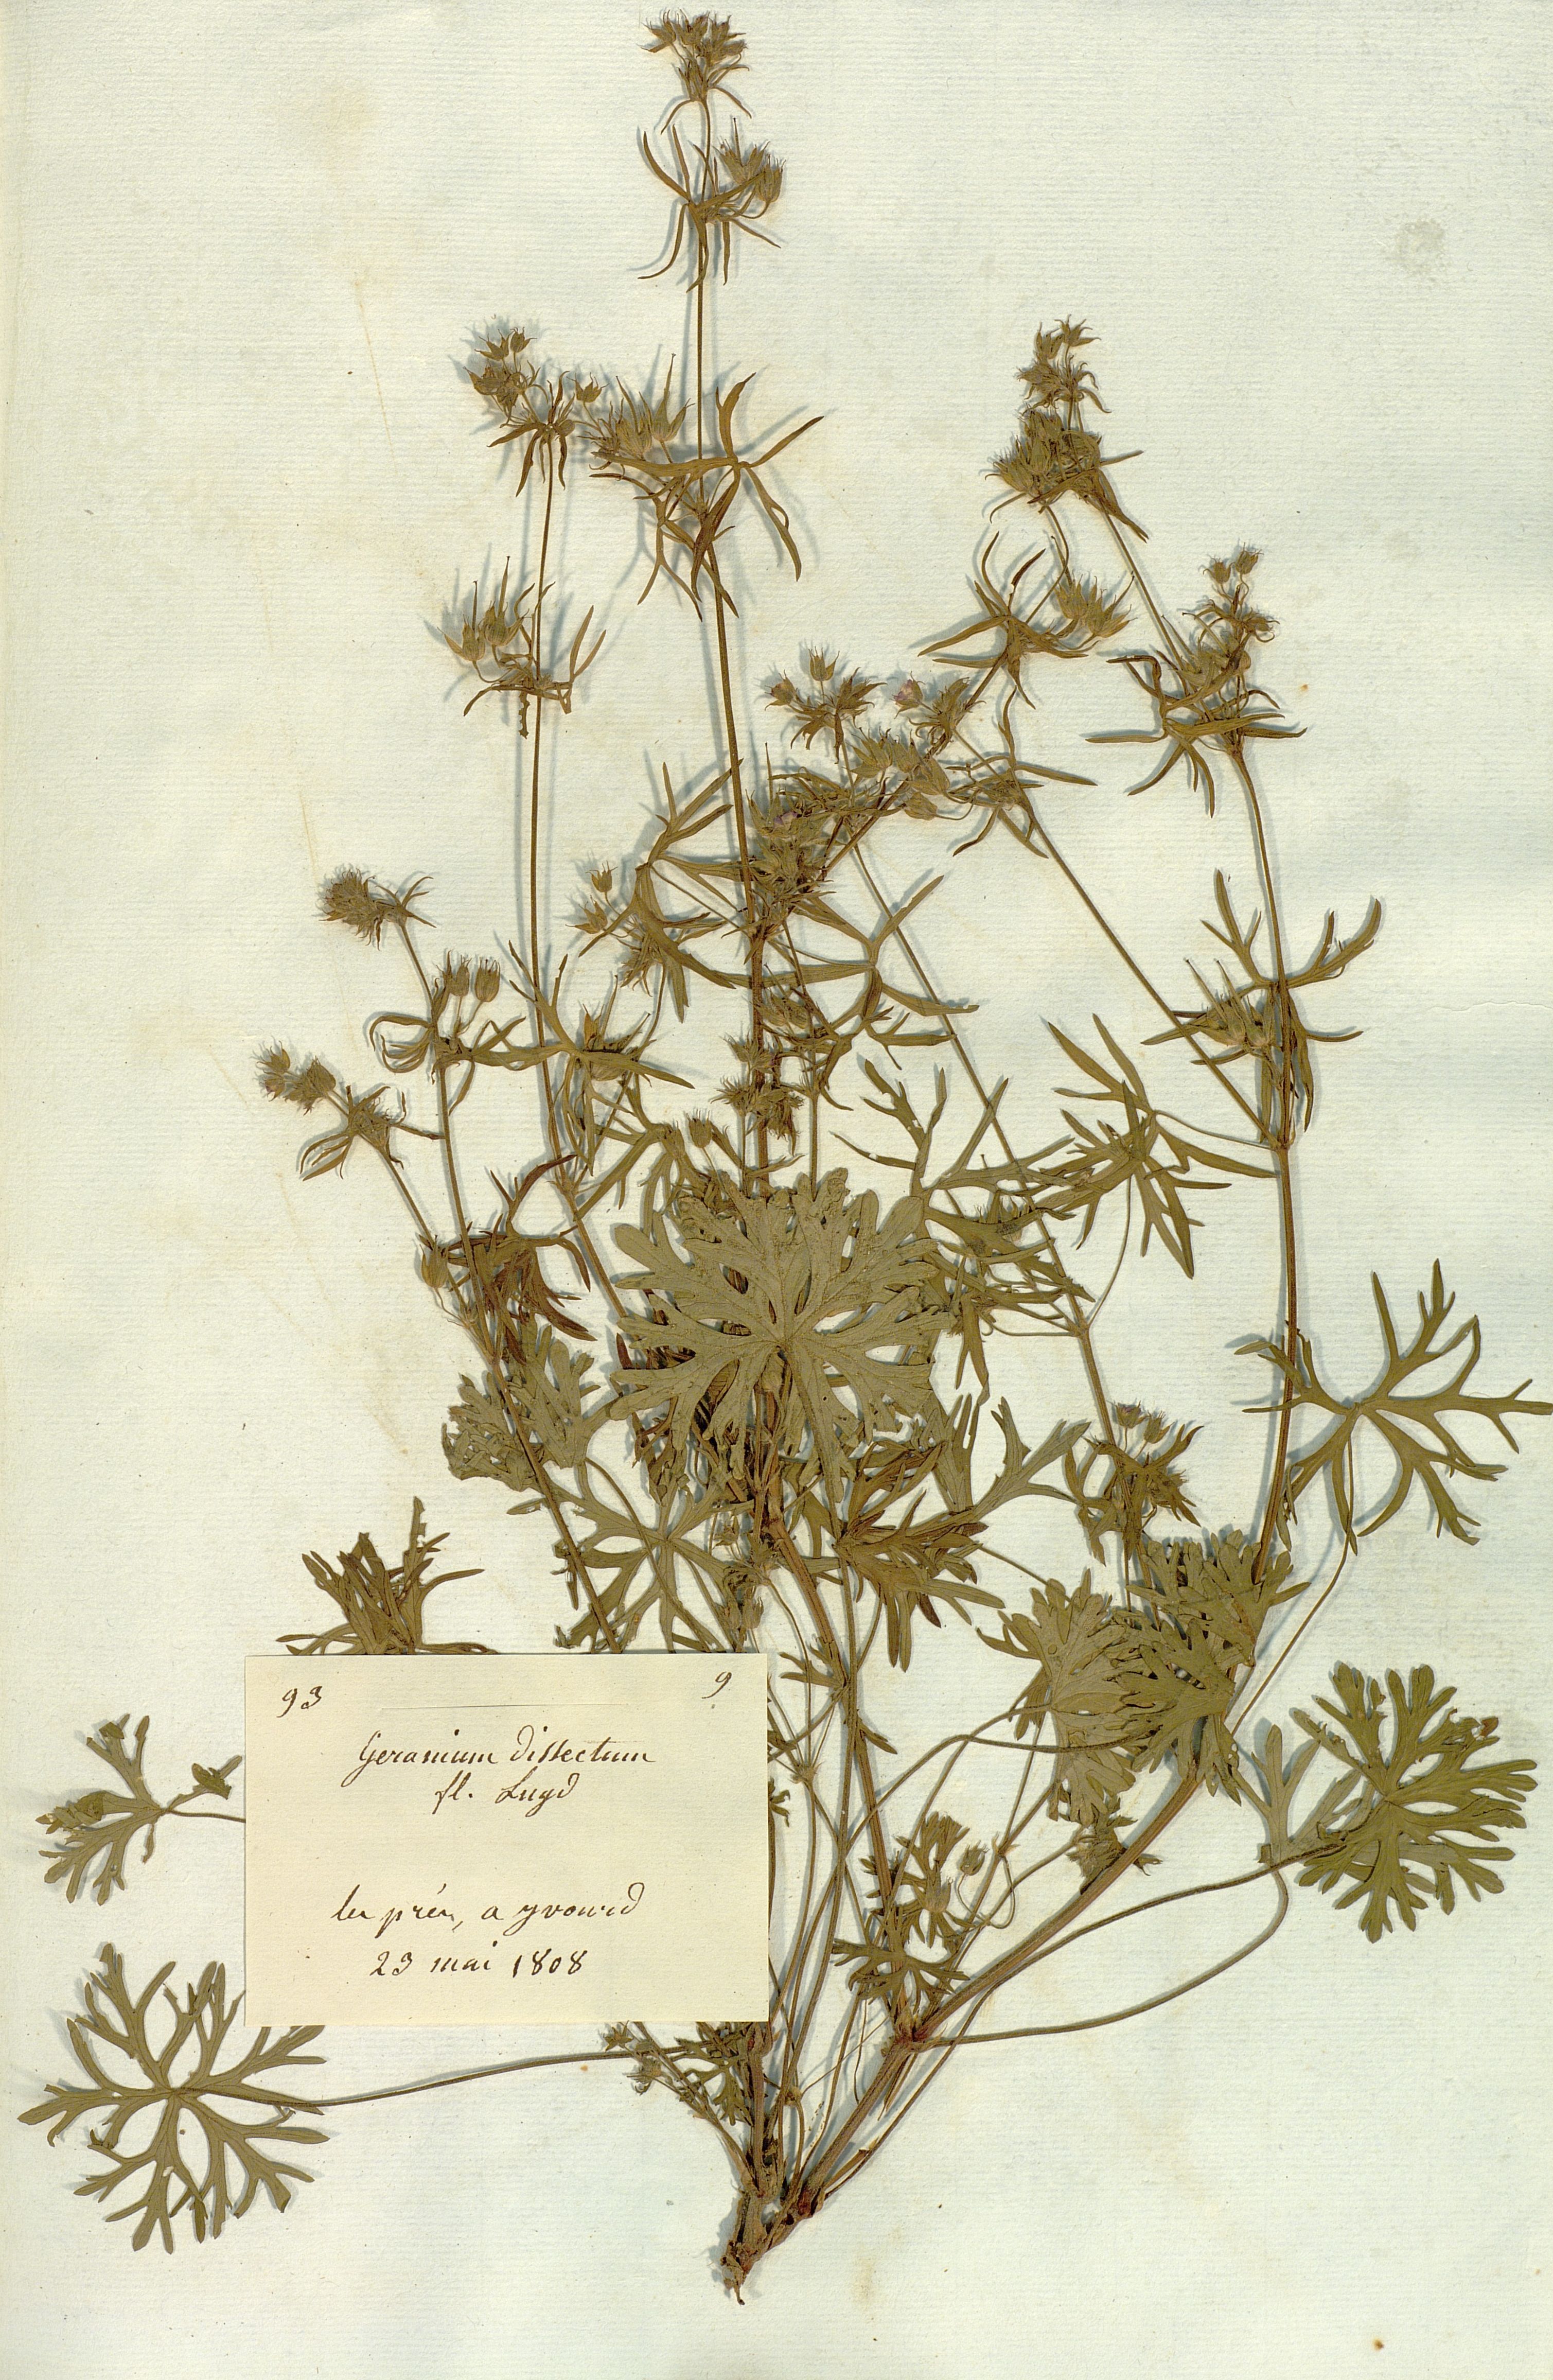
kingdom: Plantae
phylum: Tracheophyta
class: Magnoliopsida
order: Geraniales
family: Geraniaceae
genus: Geranium
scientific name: Geranium dissectum
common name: Cut-leaved crane's-bill
